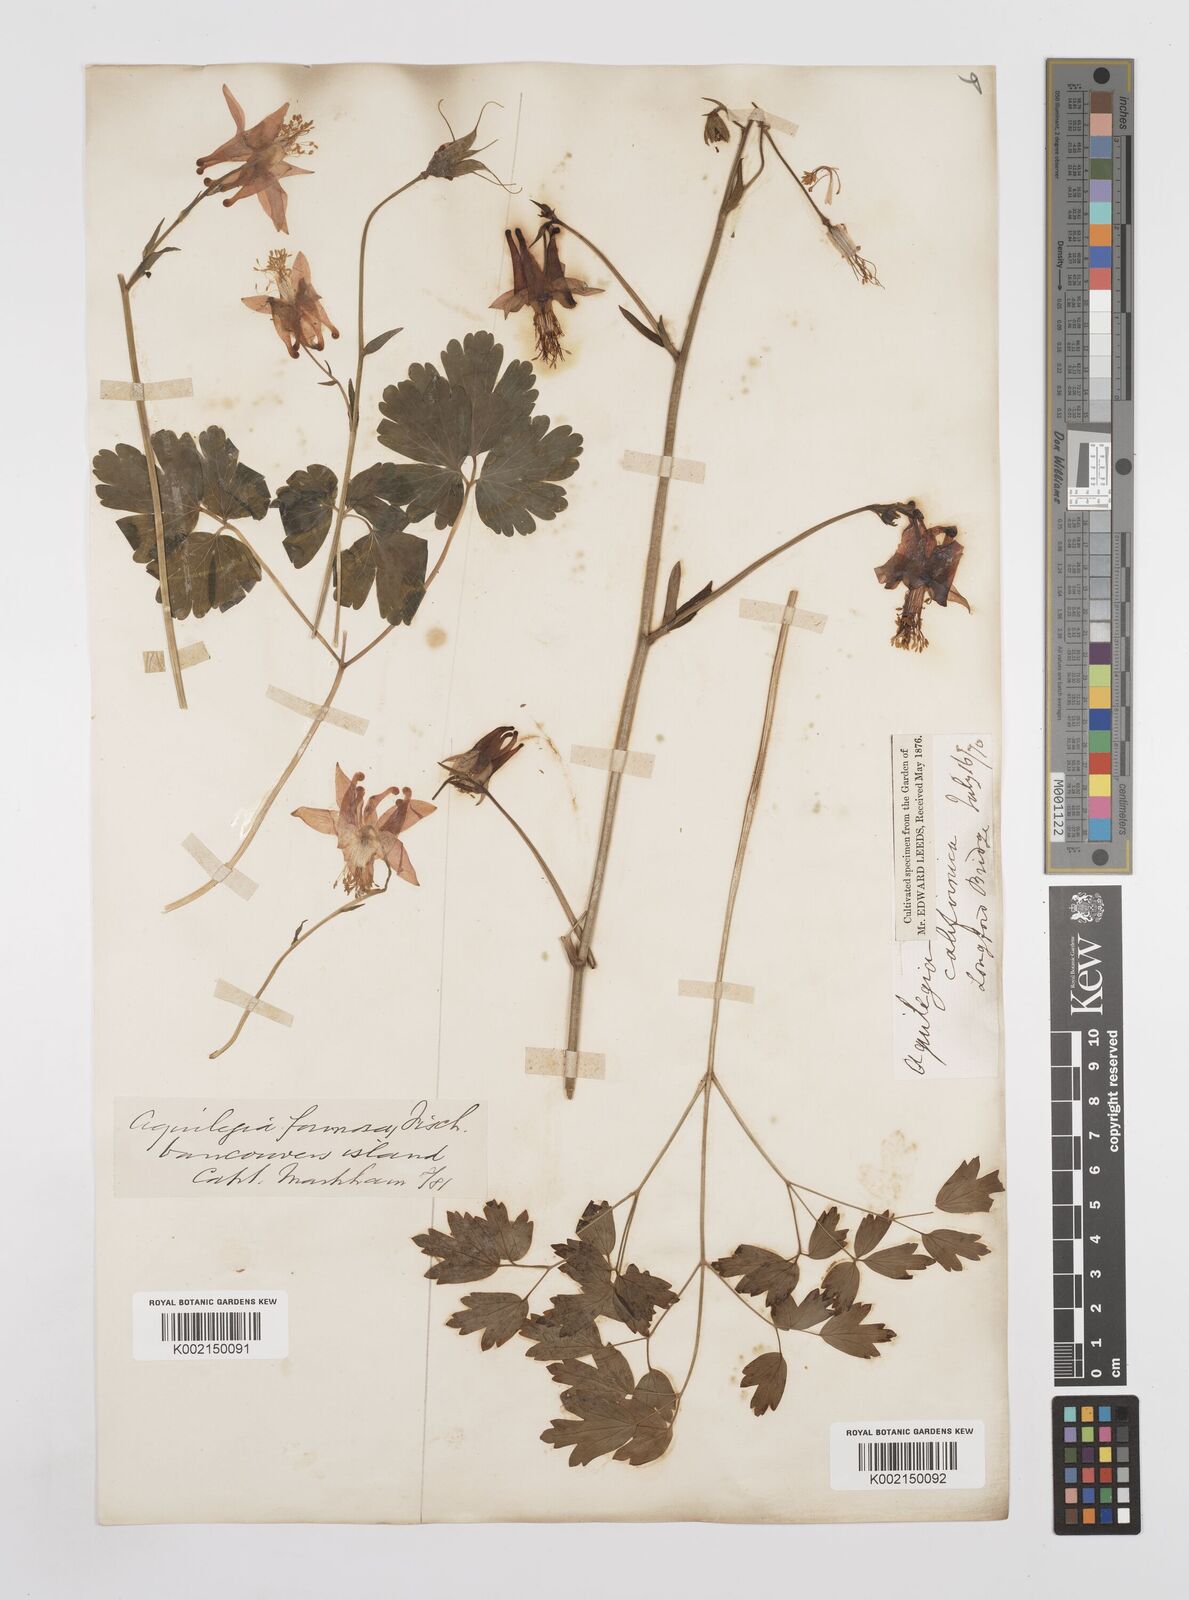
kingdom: Plantae
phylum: Tracheophyta
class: Magnoliopsida
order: Ranunculales
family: Ranunculaceae
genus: Aquilegia
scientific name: Aquilegia
